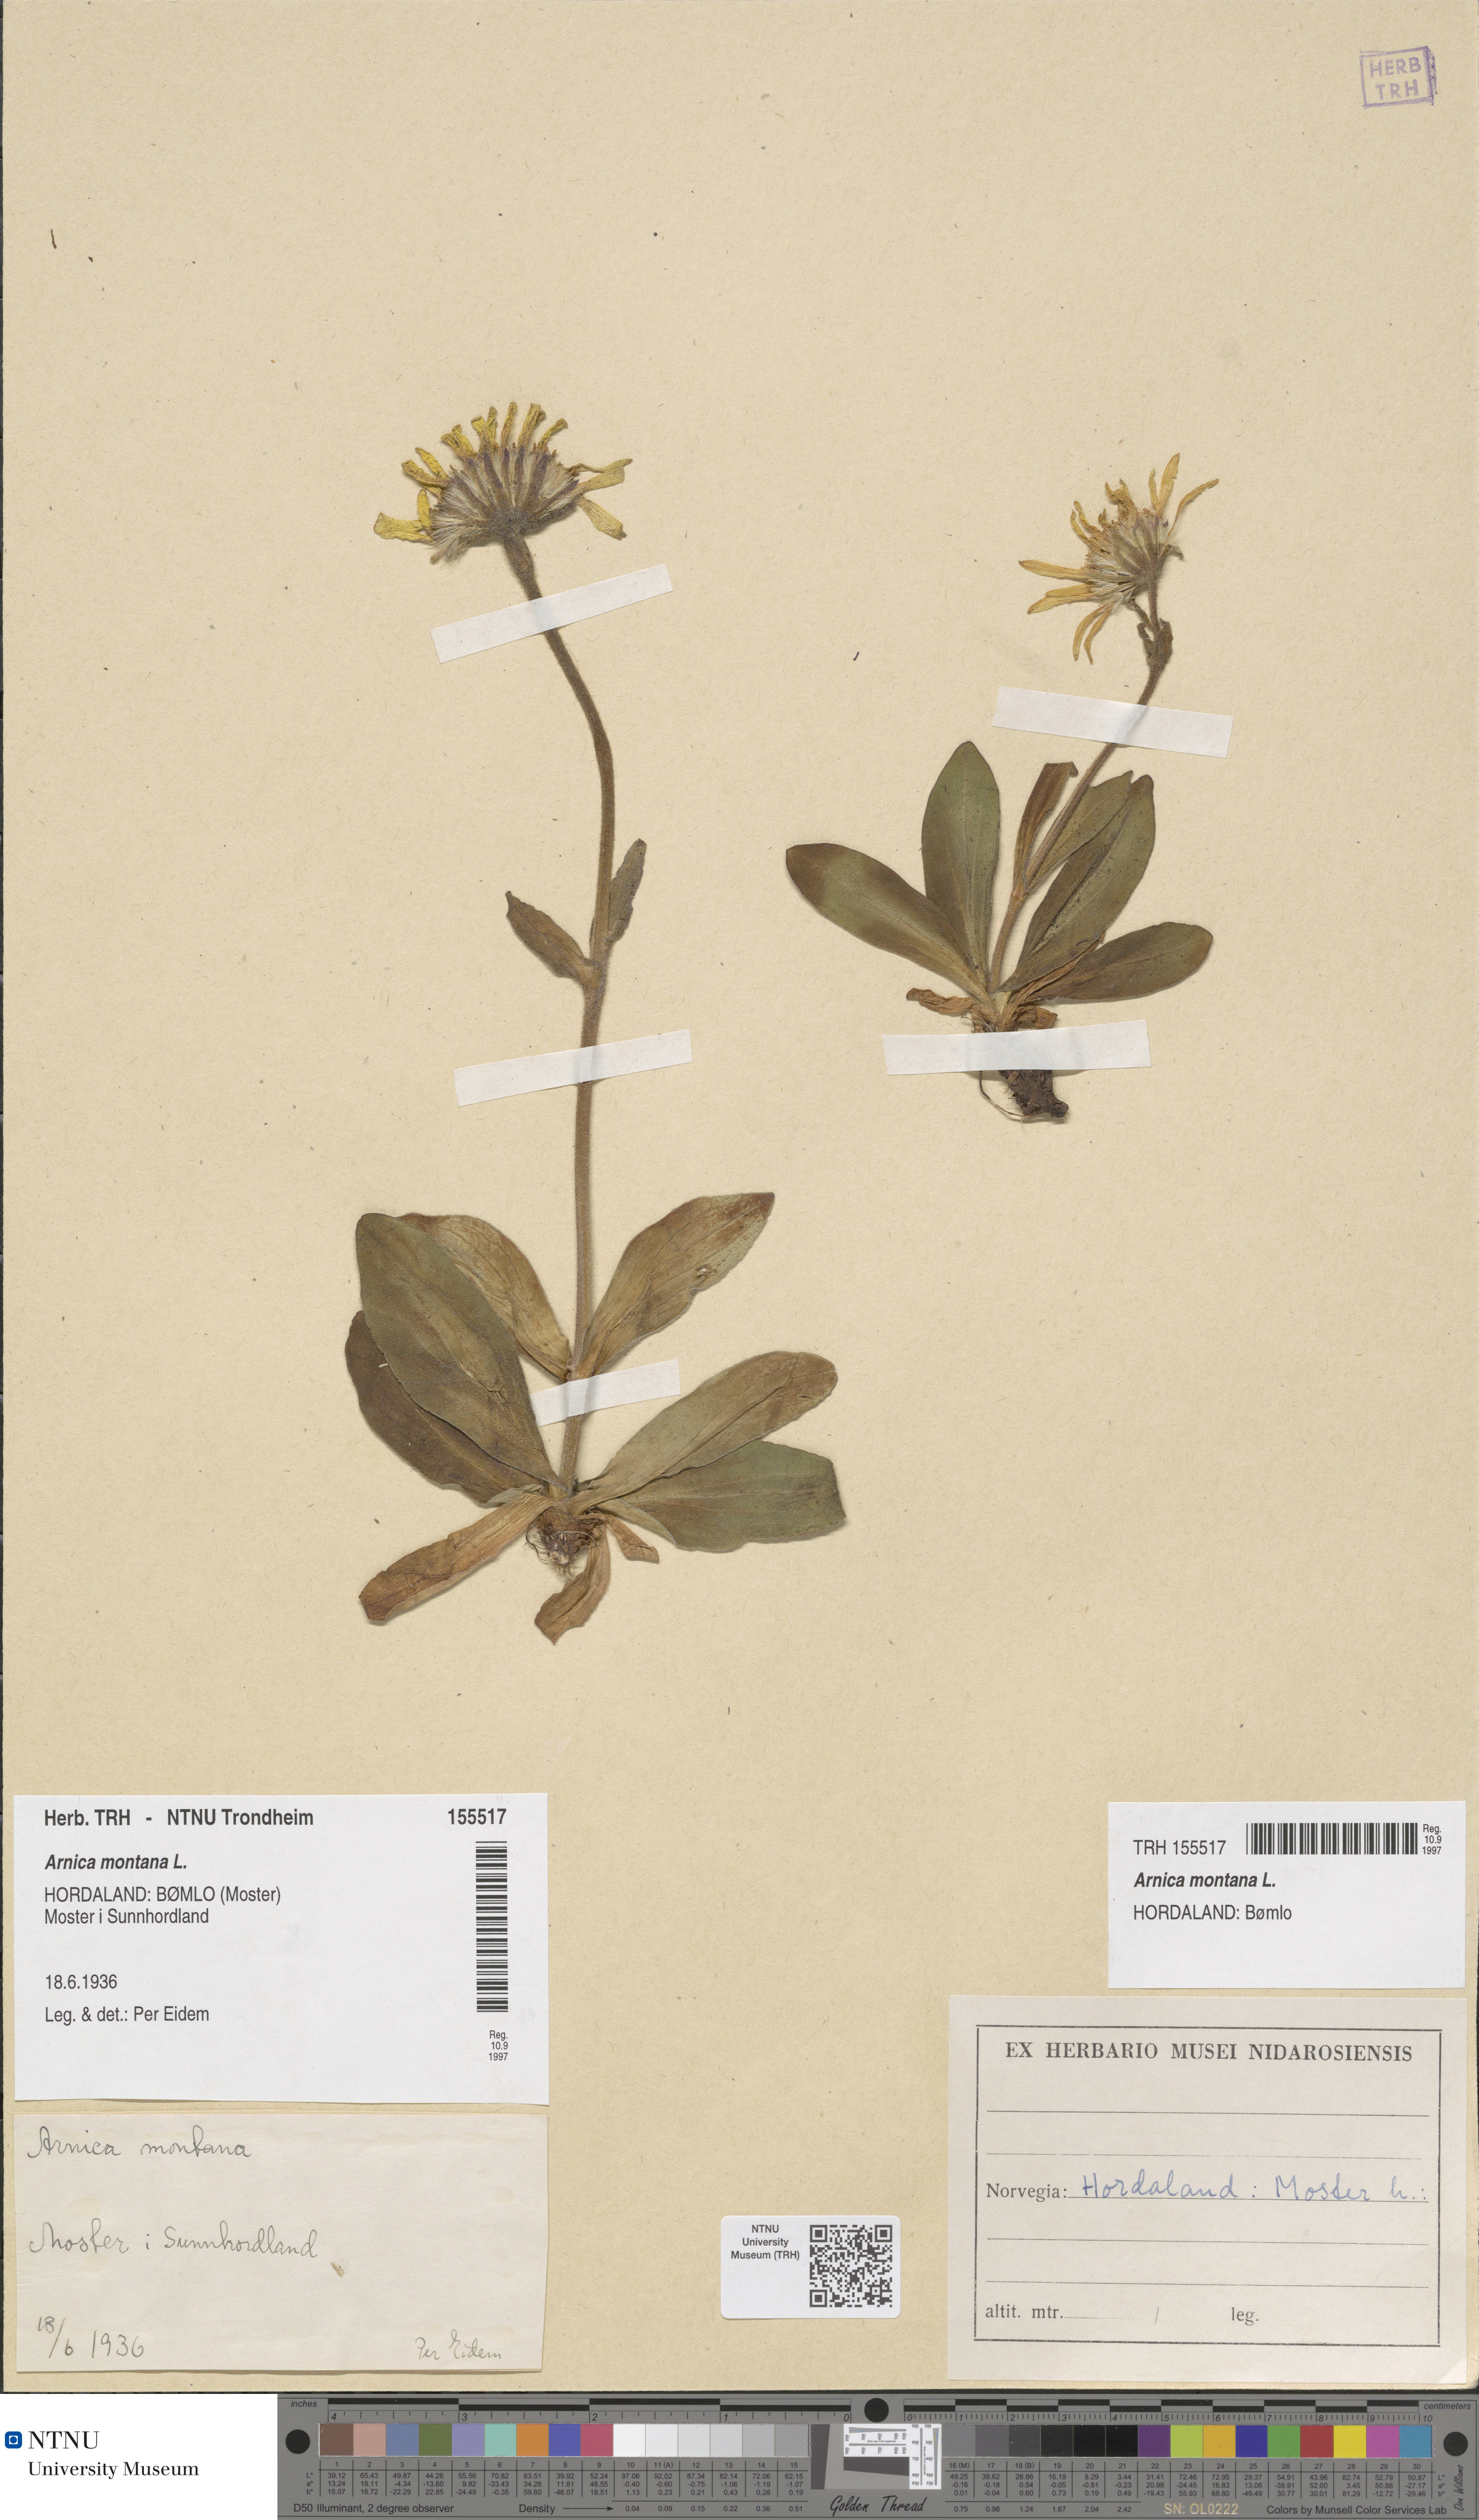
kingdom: Plantae
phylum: Tracheophyta
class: Magnoliopsida
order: Asterales
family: Asteraceae
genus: Arnica
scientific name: Arnica montana
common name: Leopard's bane
